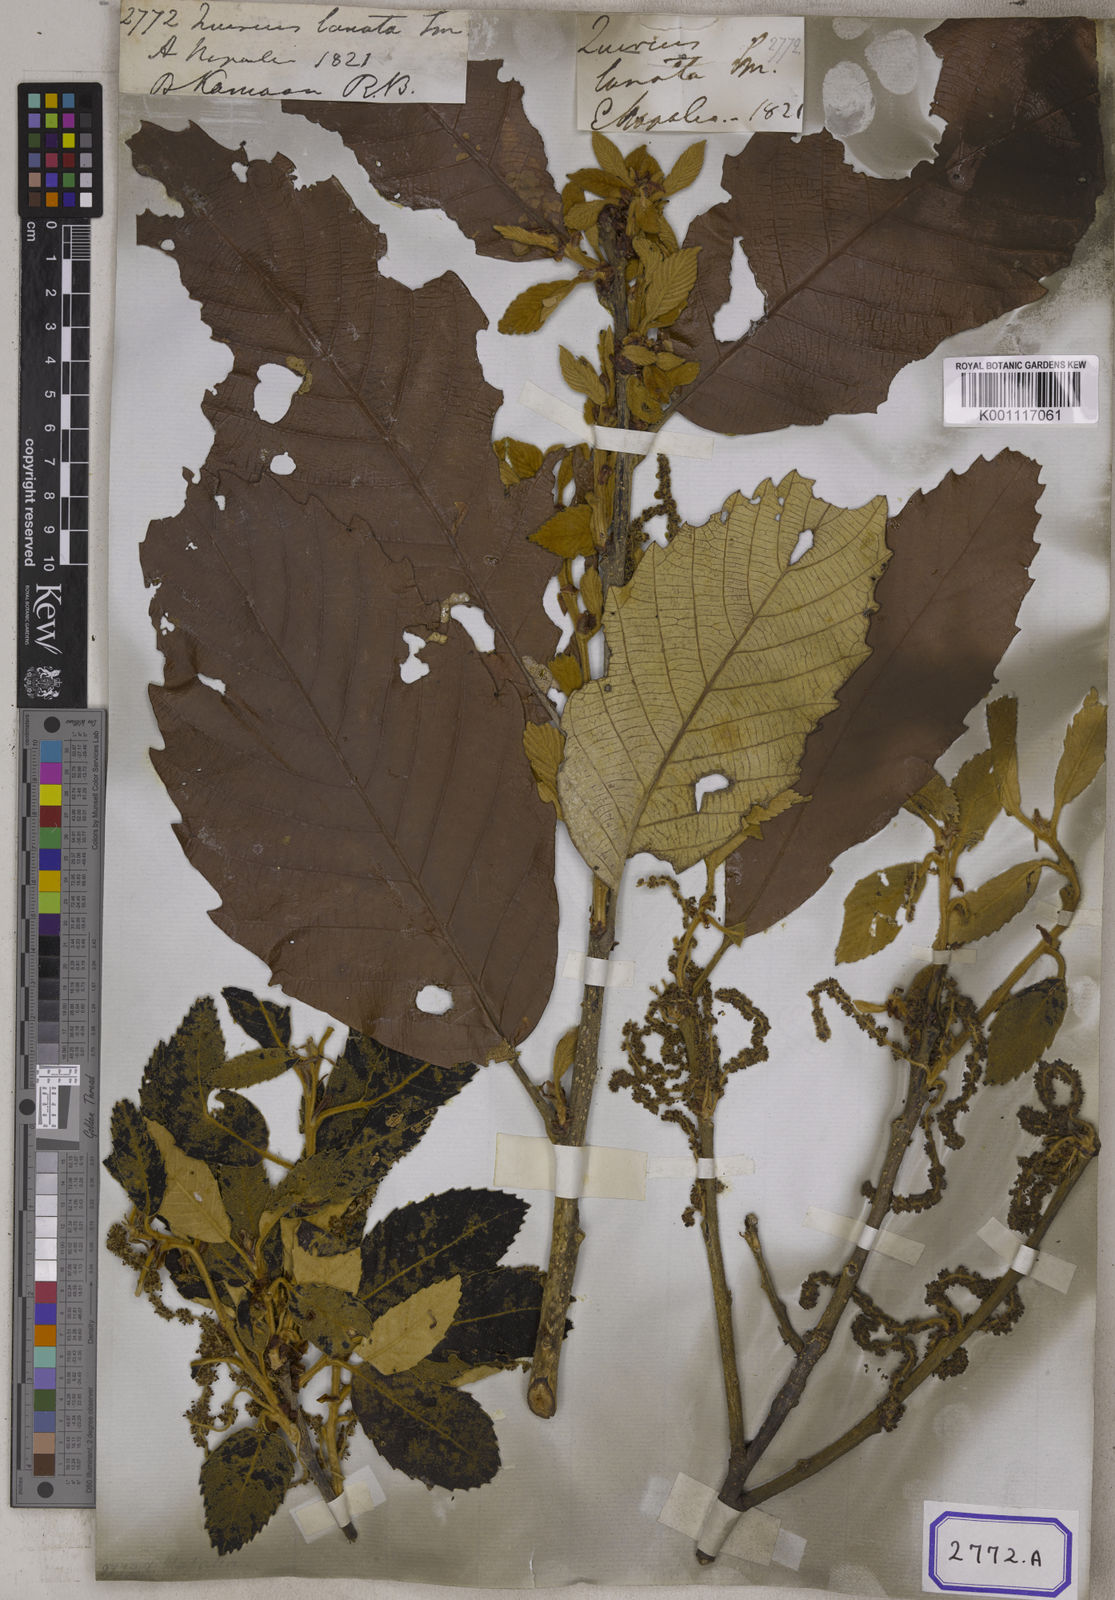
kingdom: Plantae
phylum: Tracheophyta
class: Magnoliopsida
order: Fagales
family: Fagaceae
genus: Quercus
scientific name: Quercus lanata
